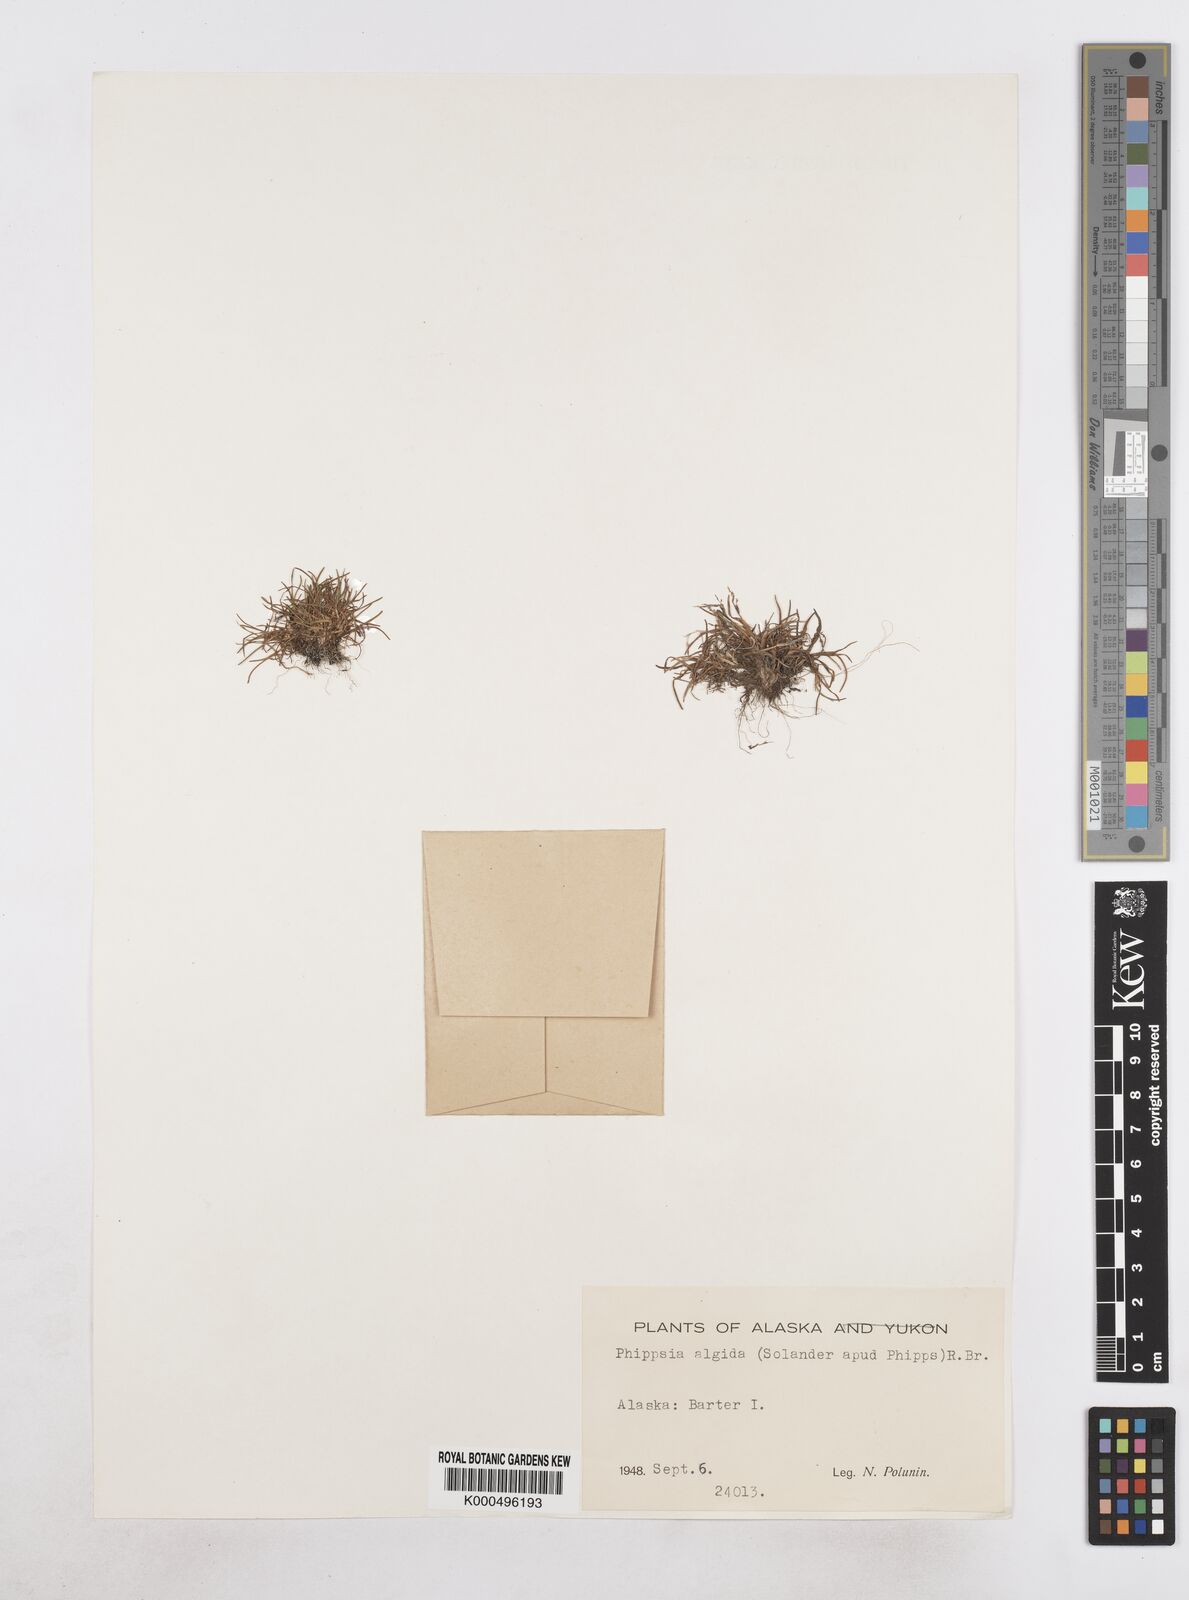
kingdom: Plantae
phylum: Tracheophyta
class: Liliopsida
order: Poales
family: Poaceae
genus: Phippsia
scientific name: Phippsia algida
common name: Ice grass
